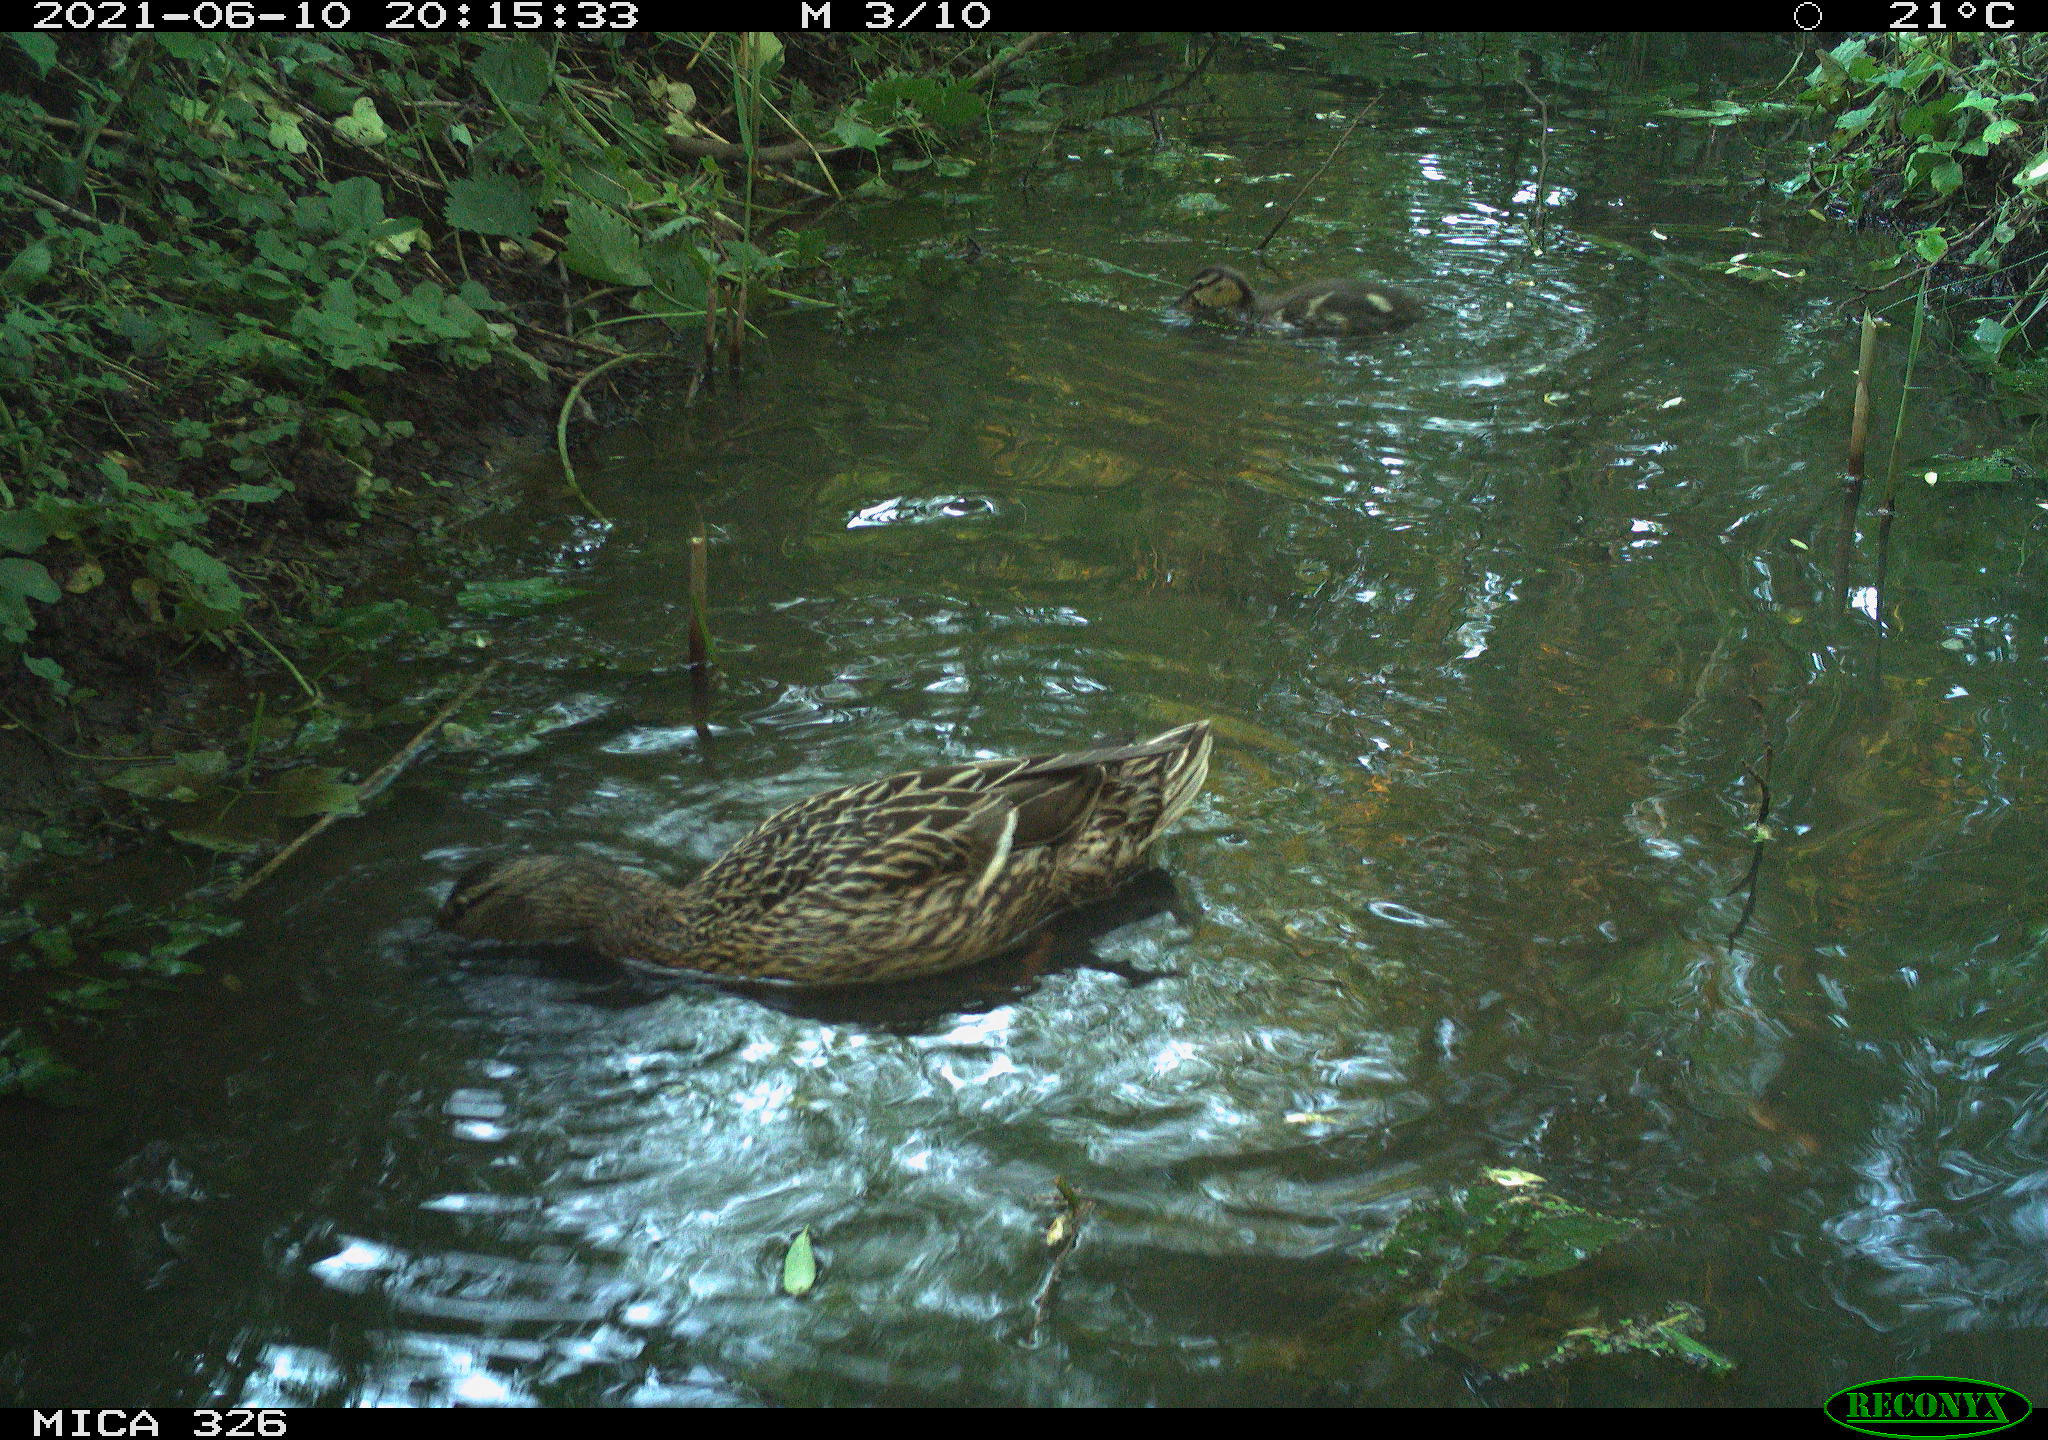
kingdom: Animalia
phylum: Chordata
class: Aves
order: Anseriformes
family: Anatidae
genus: Anas
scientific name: Anas platyrhynchos
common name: Mallard
